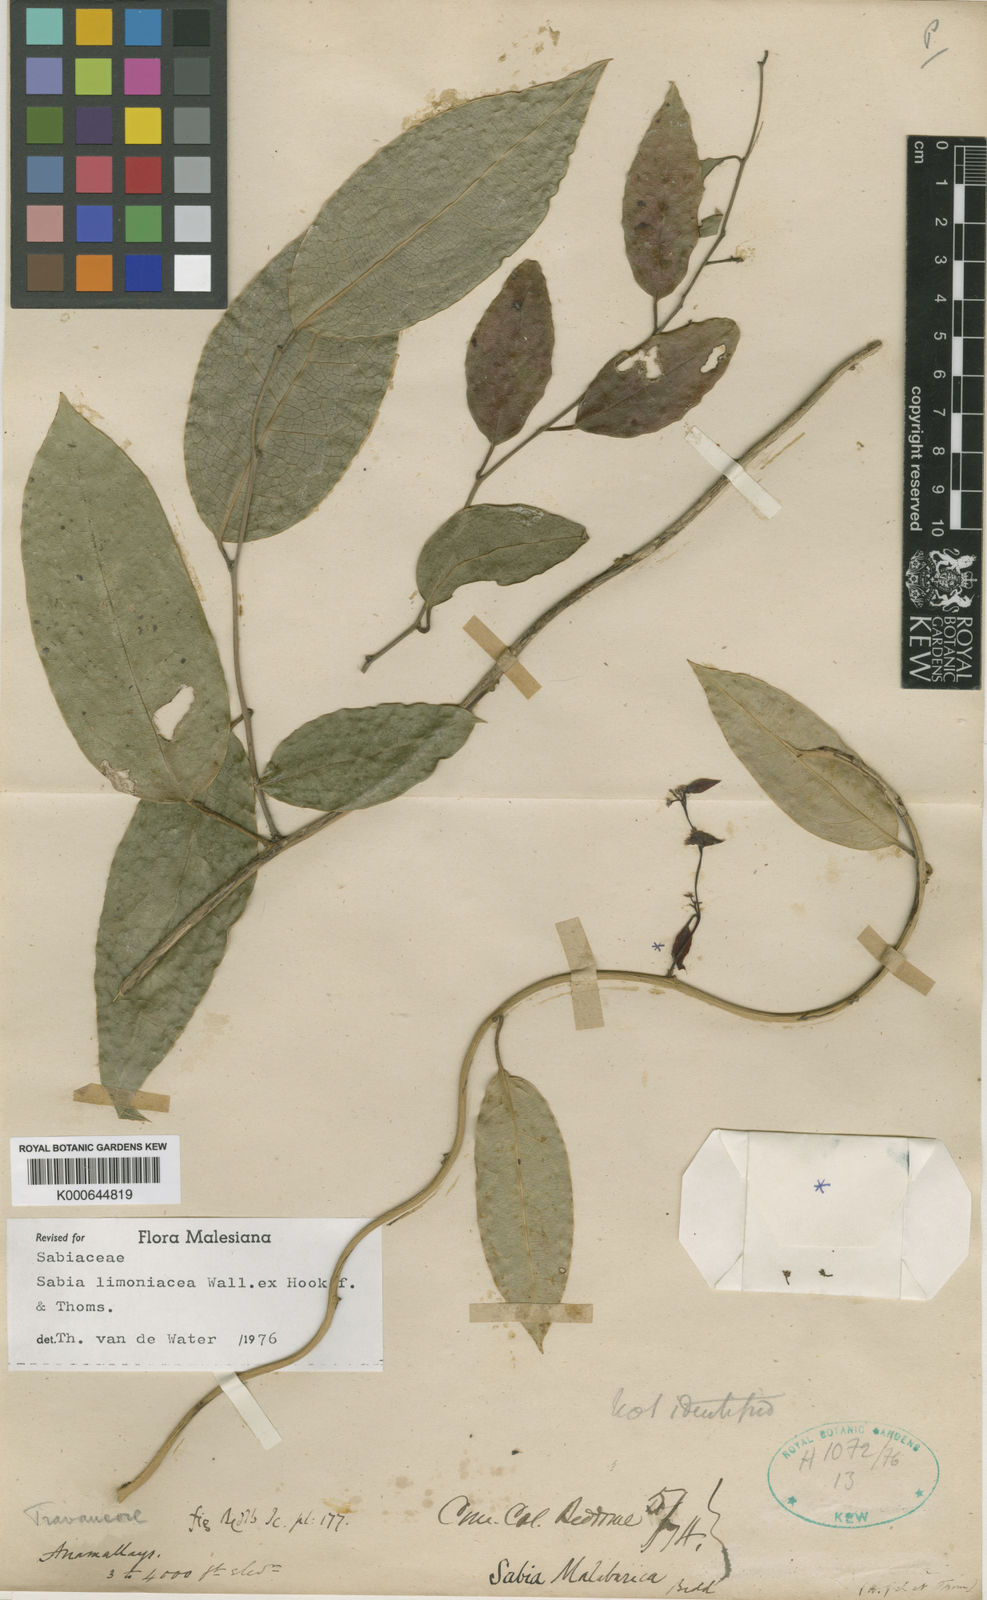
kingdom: Plantae
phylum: Tracheophyta
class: Magnoliopsida
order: Proteales
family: Sabiaceae
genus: Sabia
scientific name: Sabia limoniacea
